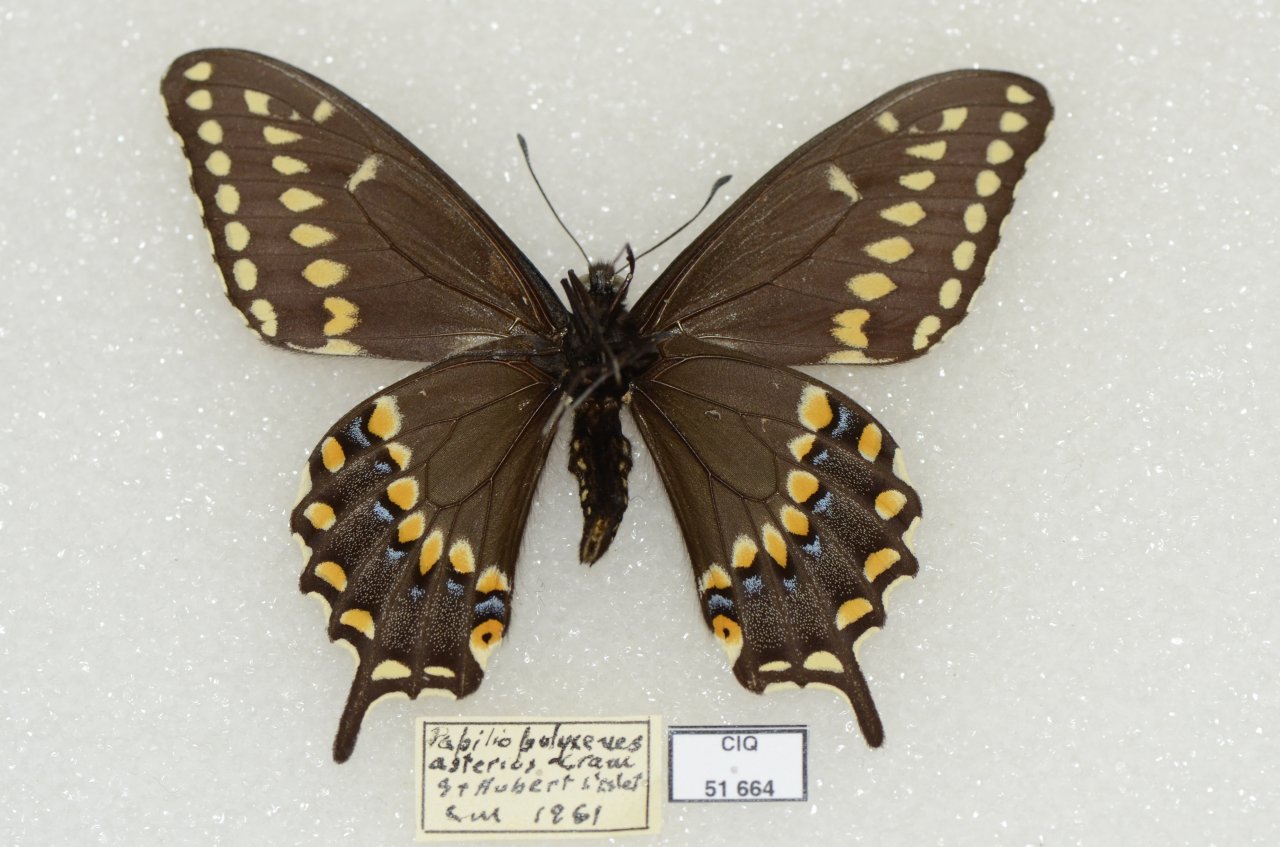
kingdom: Animalia
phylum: Arthropoda
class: Insecta
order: Lepidoptera
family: Papilionidae
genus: Papilio
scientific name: Papilio polyxenes
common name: Black Swallowtail
